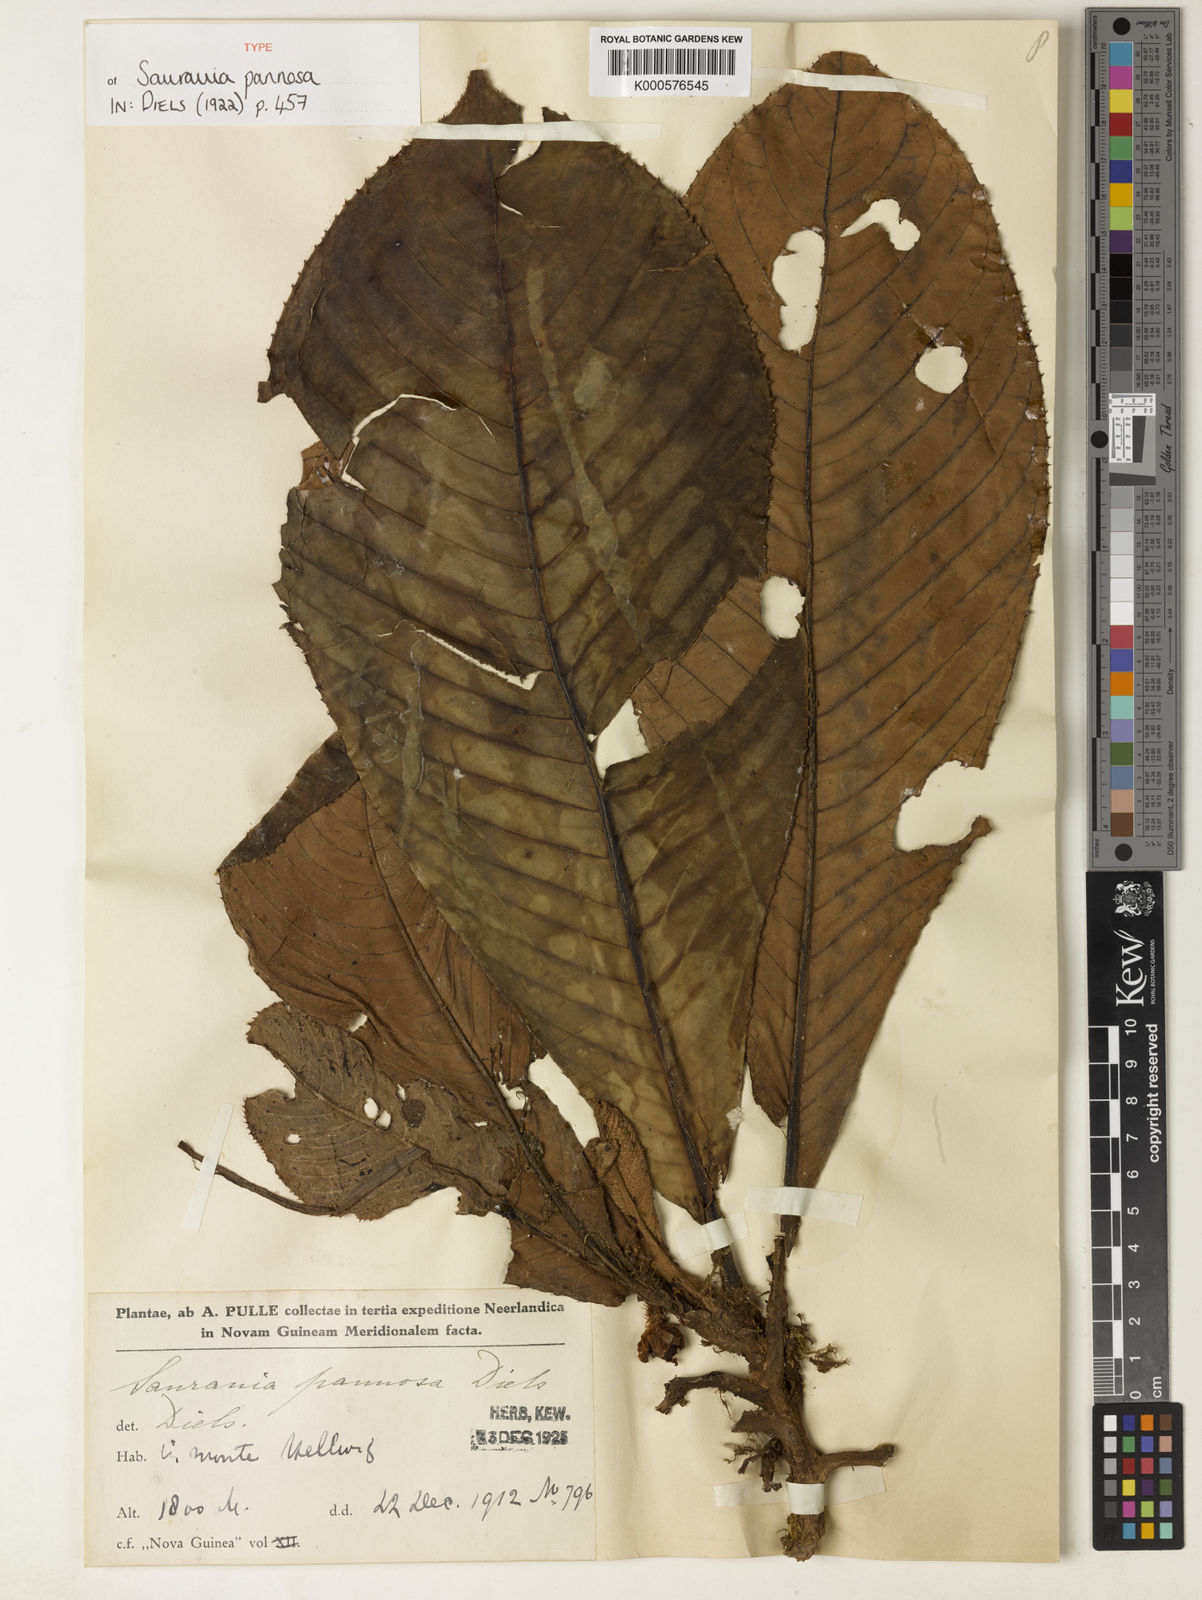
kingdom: Plantae
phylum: Tracheophyta
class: Magnoliopsida
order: Ericales
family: Actinidiaceae
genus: Saurauia
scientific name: Saurauia
